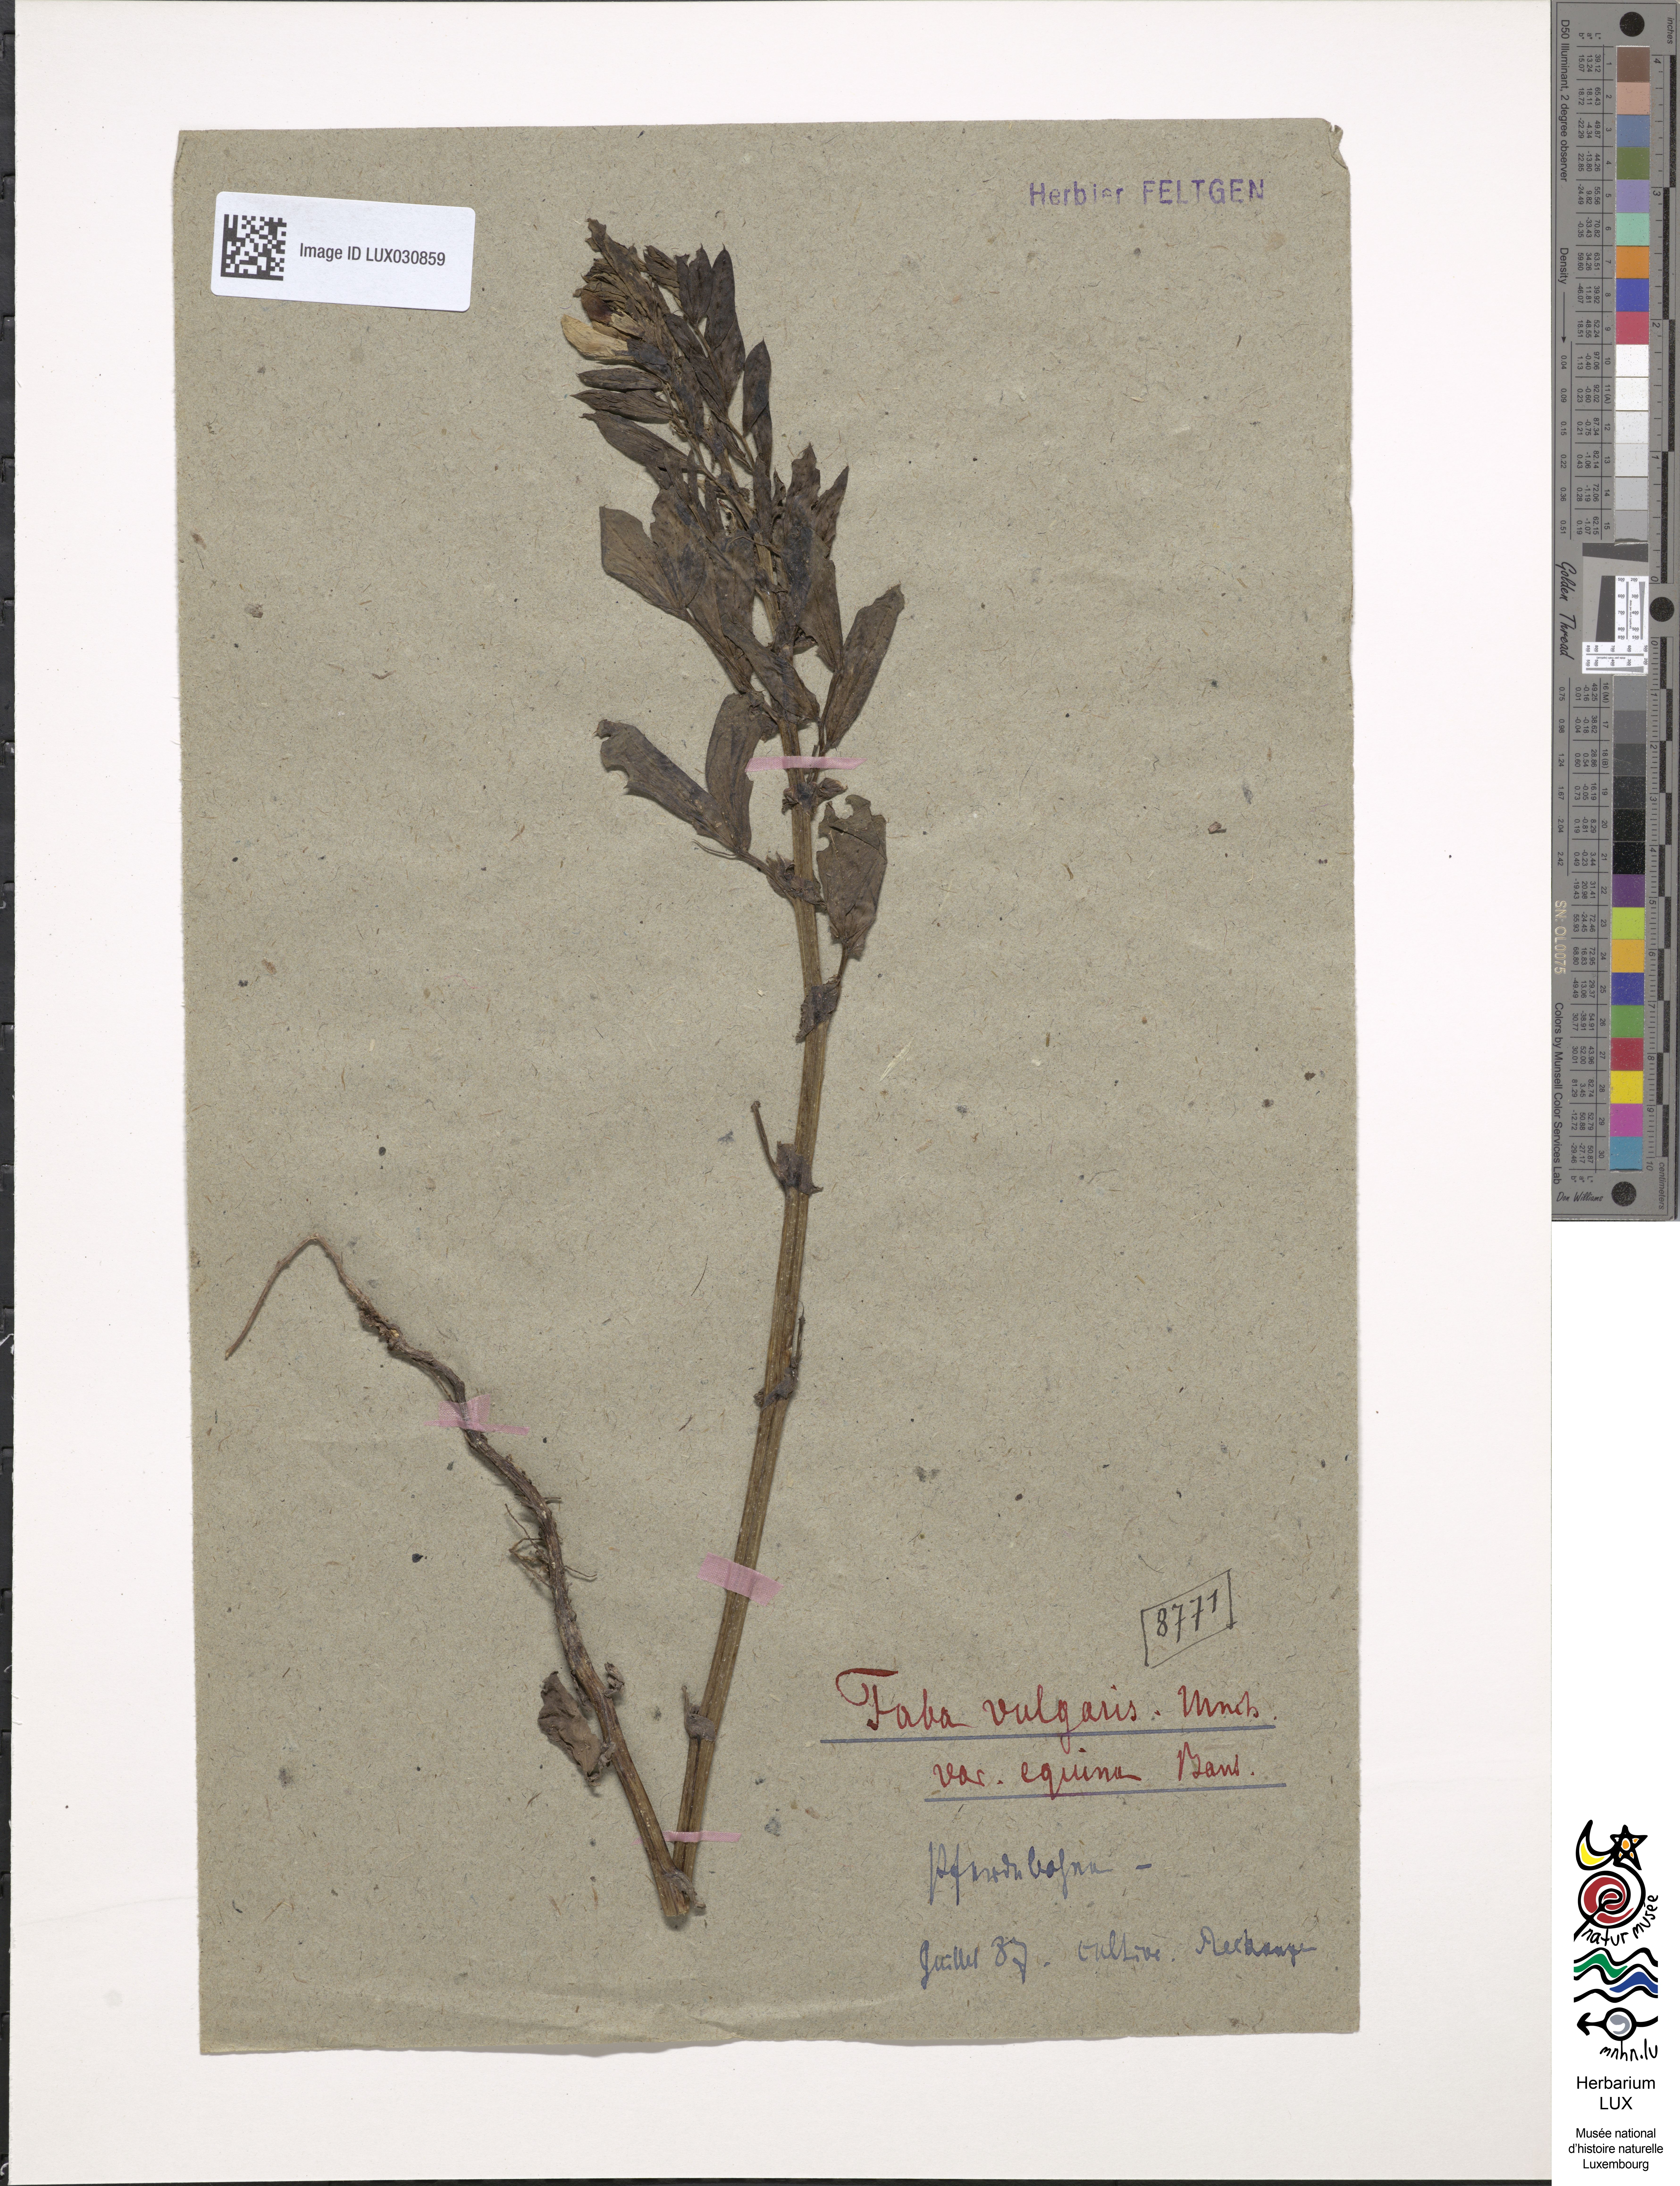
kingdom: Plantae
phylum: Tracheophyta
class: Magnoliopsida
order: Fabales
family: Fabaceae
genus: Vicia
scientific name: Vicia faba
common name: Broad bean
